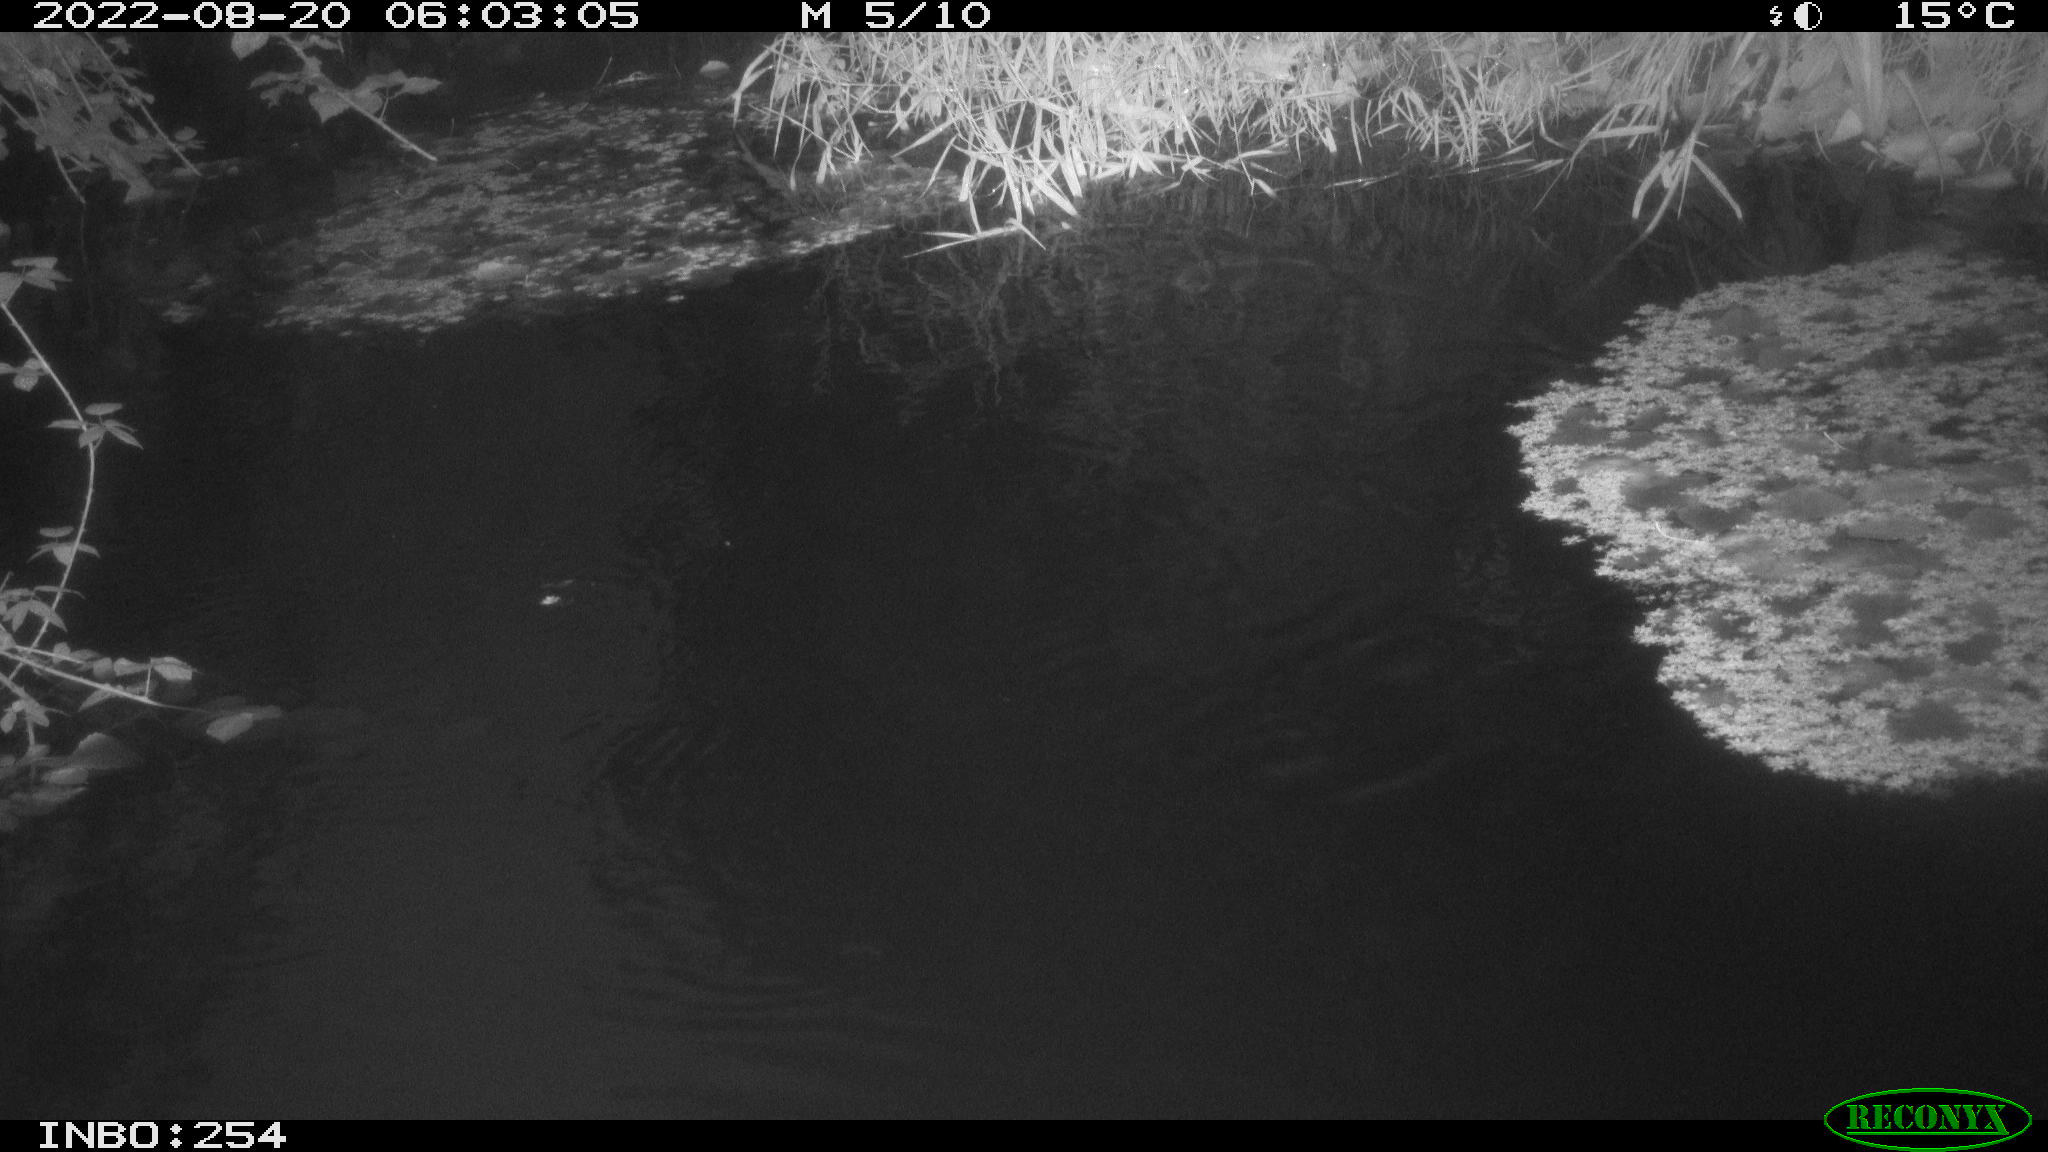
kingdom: Animalia
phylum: Chordata
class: Aves
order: Anseriformes
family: Anatidae
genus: Anas
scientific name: Anas platyrhynchos
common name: Mallard
